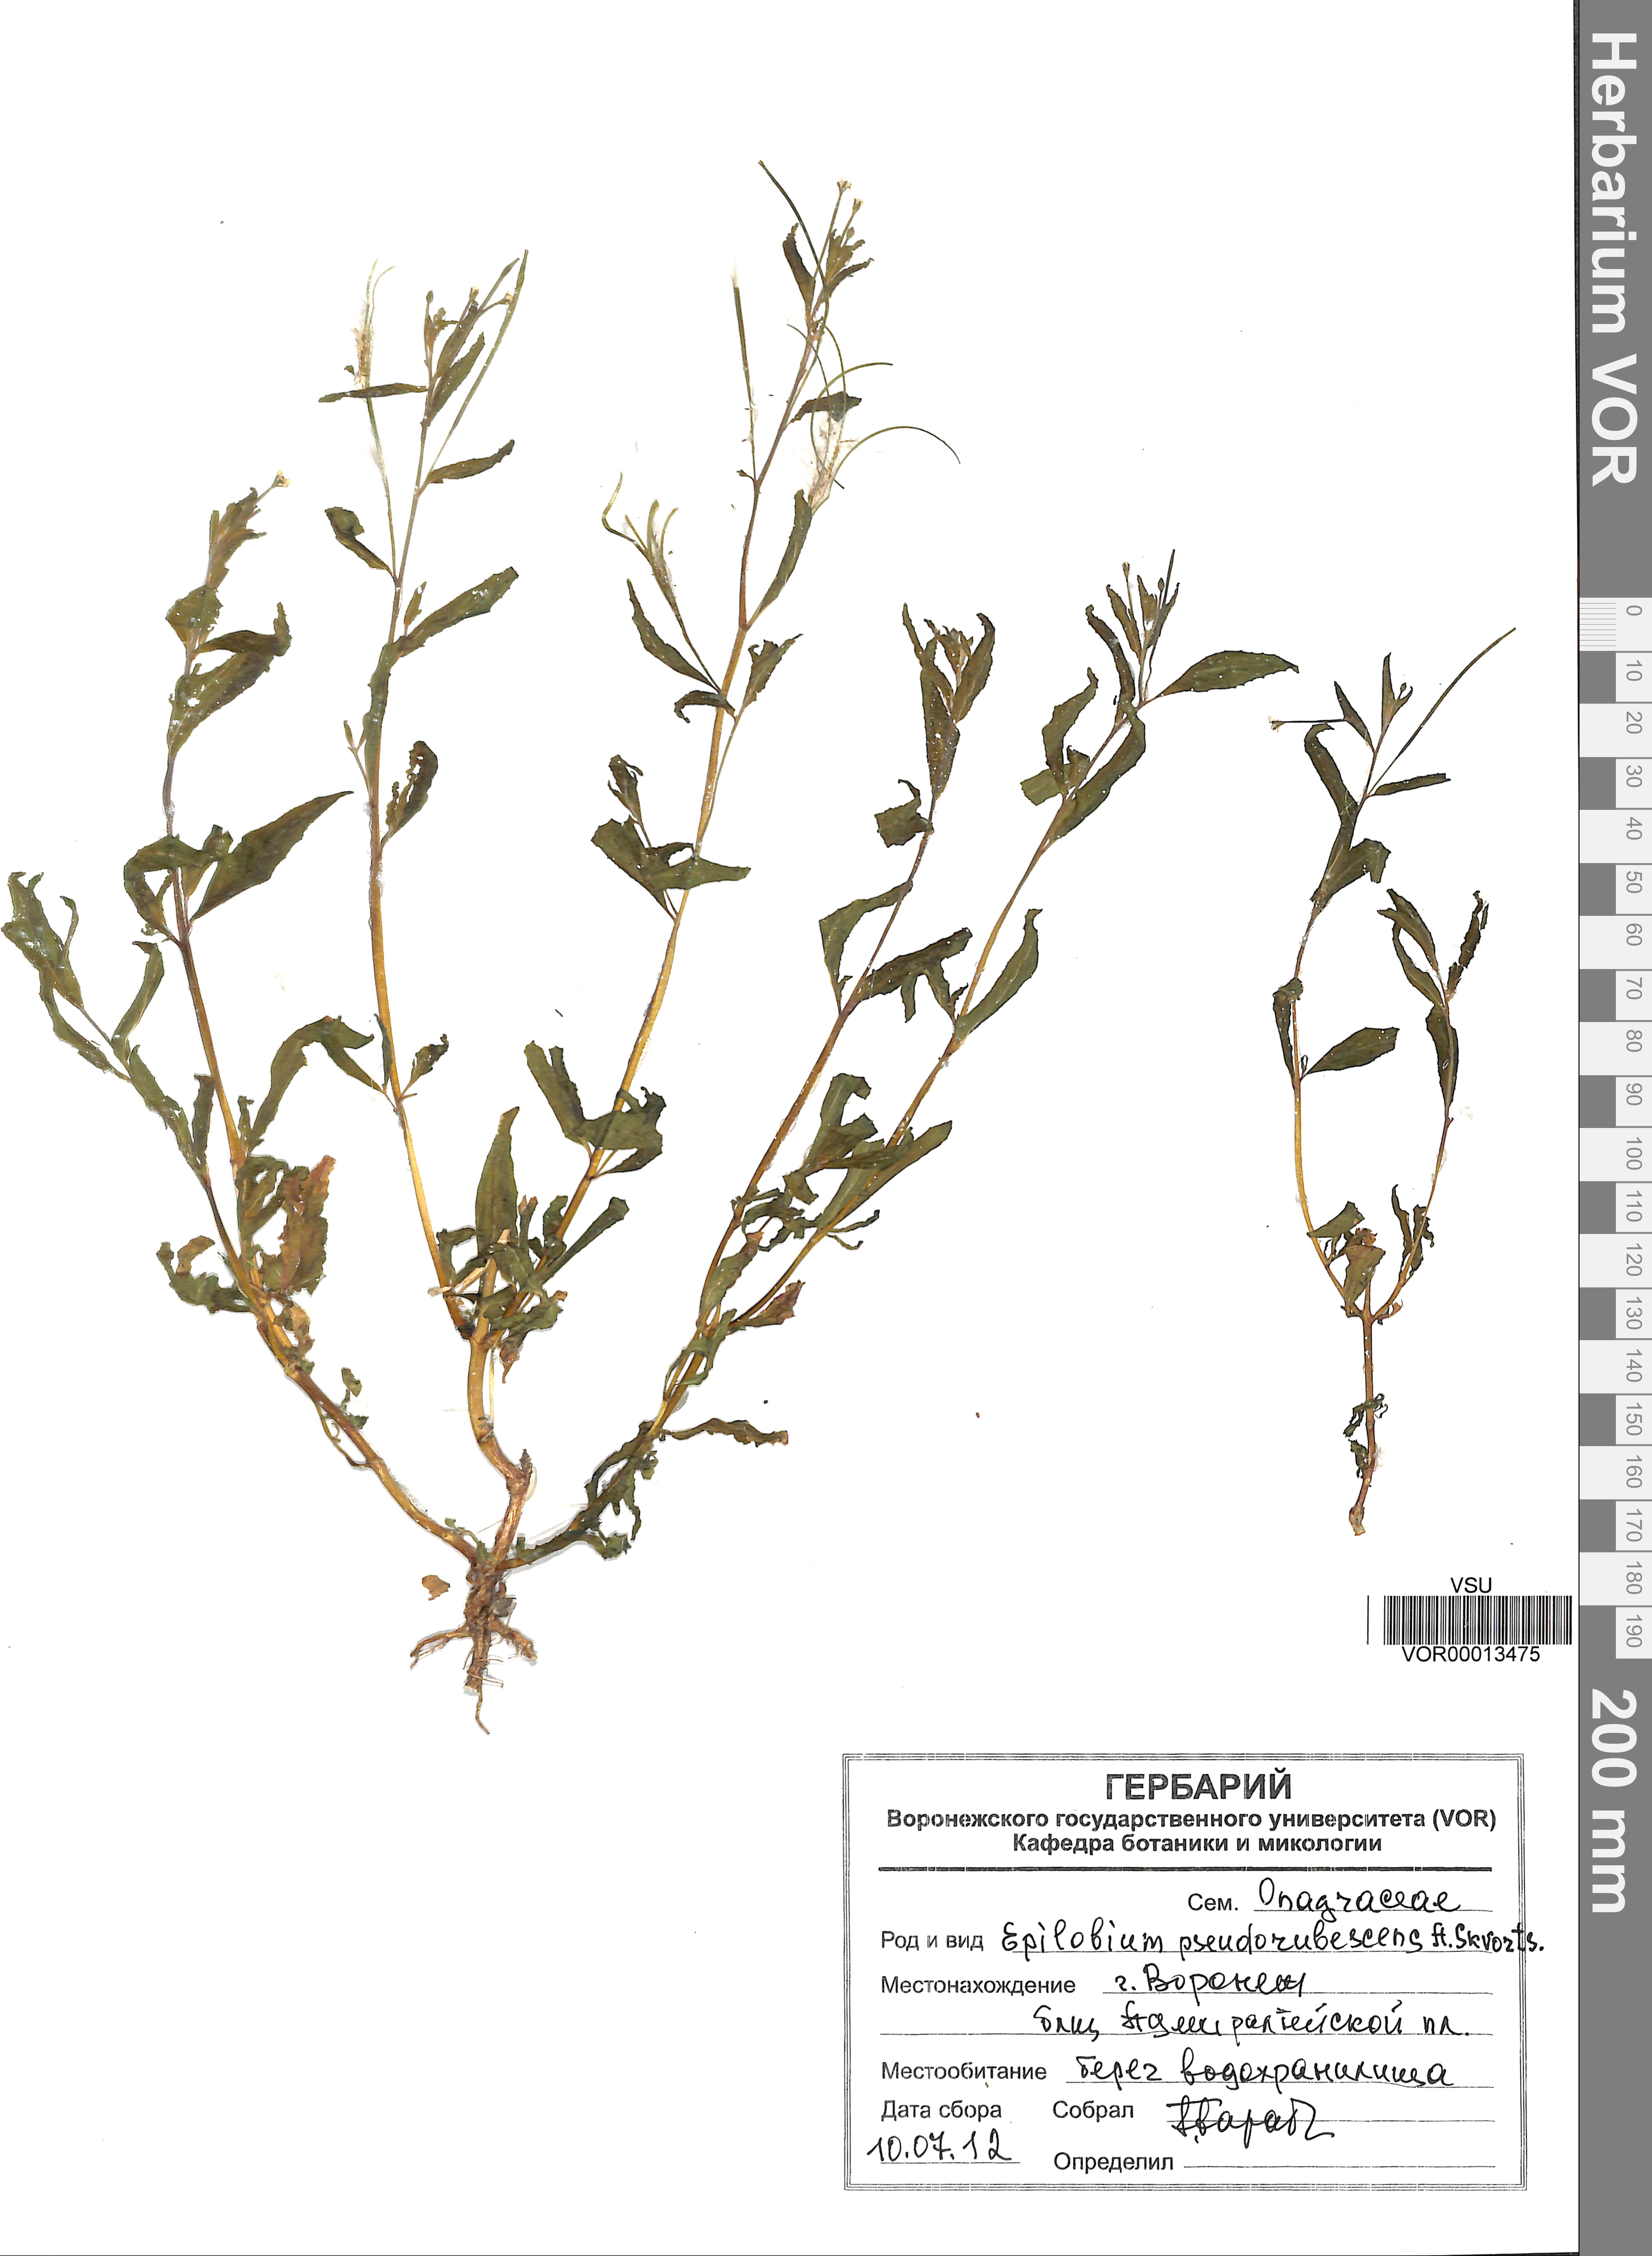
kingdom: Plantae
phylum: Tracheophyta
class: Magnoliopsida
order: Myrtales
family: Onagraceae
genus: Epilobium
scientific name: Epilobium pseudorubescens
